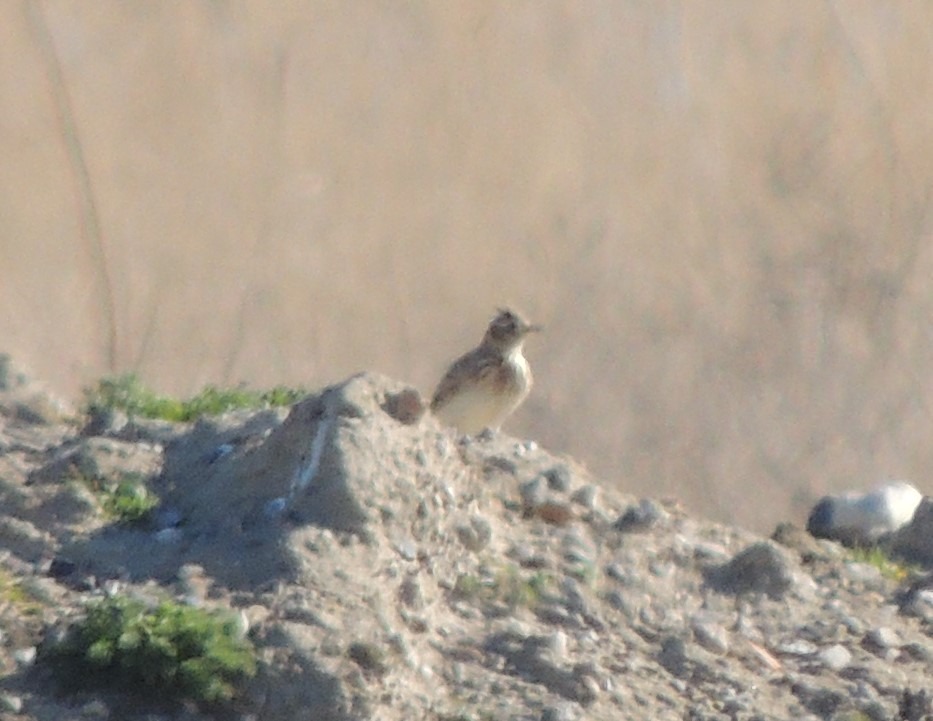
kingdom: Animalia
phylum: Chordata
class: Aves
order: Passeriformes
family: Alaudidae
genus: Alauda
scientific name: Alauda arvensis
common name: Sanglærke
